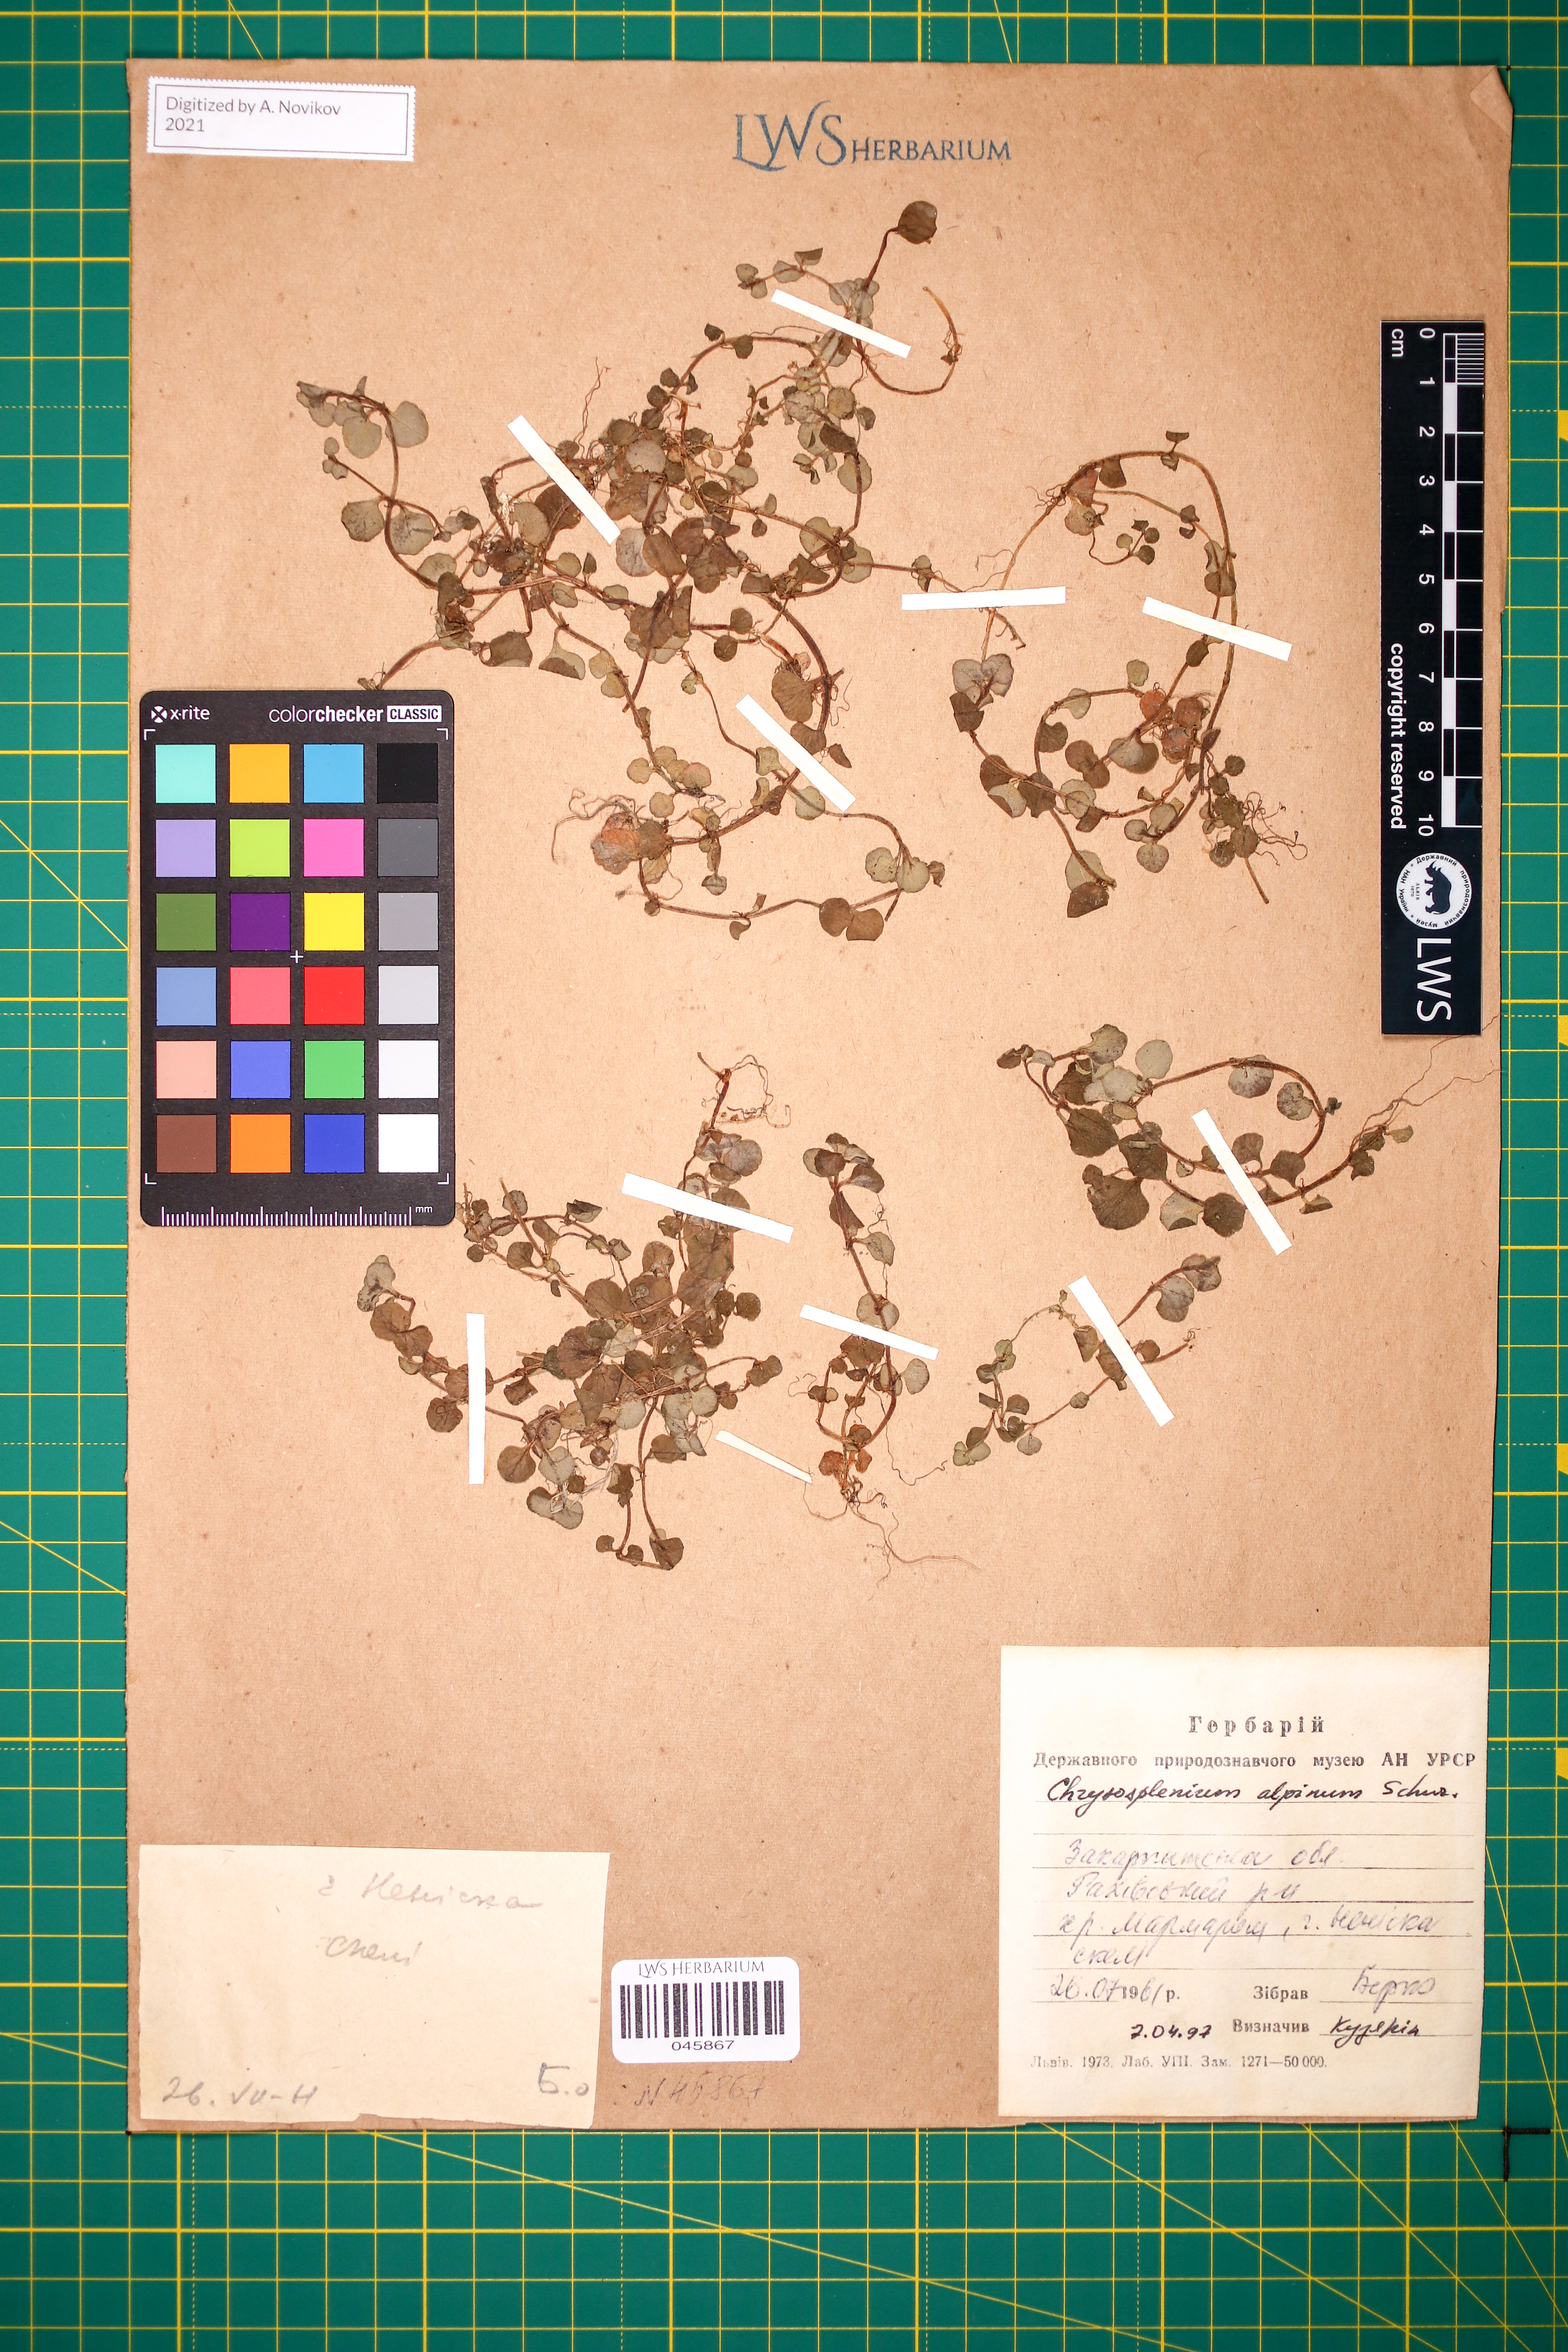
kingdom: Plantae
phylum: Tracheophyta
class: Magnoliopsida
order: Saxifragales
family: Saxifragaceae
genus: Chrysosplenium
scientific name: Chrysosplenium alpinum
